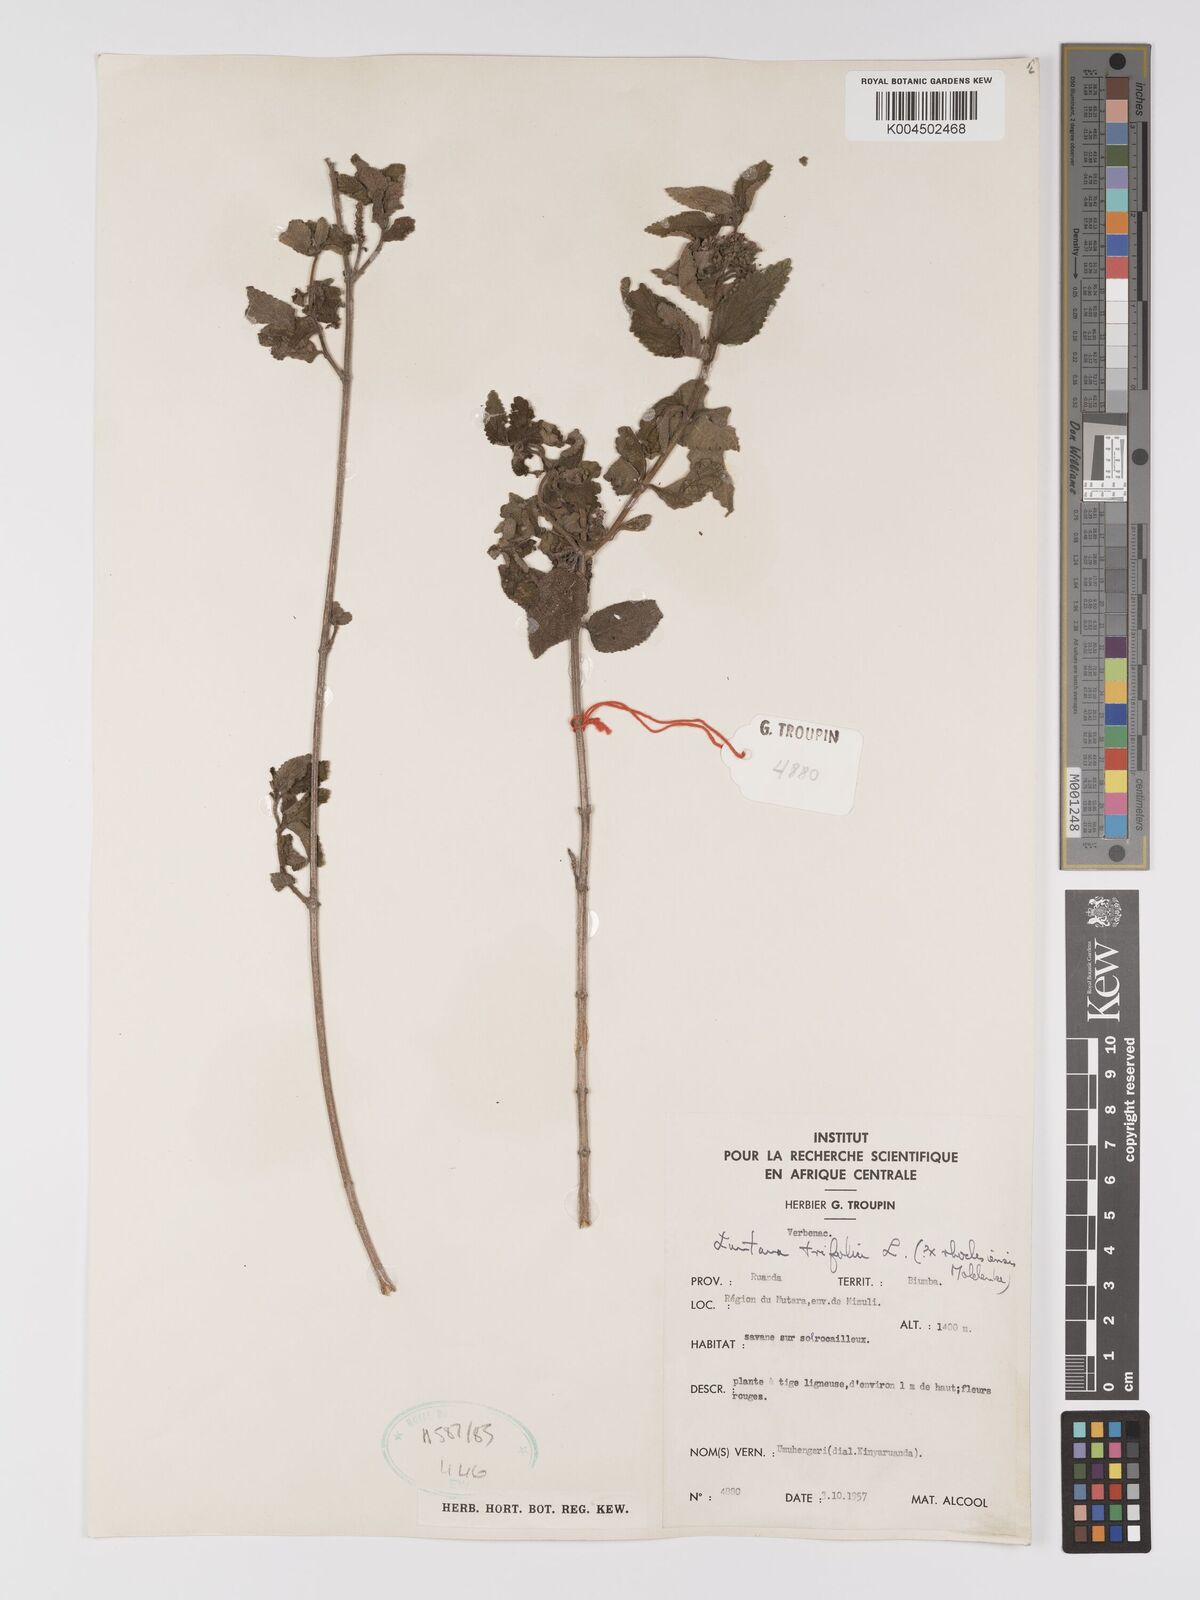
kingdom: Plantae
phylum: Tracheophyta
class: Magnoliopsida
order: Lamiales
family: Verbenaceae
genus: Lantana
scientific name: Lantana ukambensis
